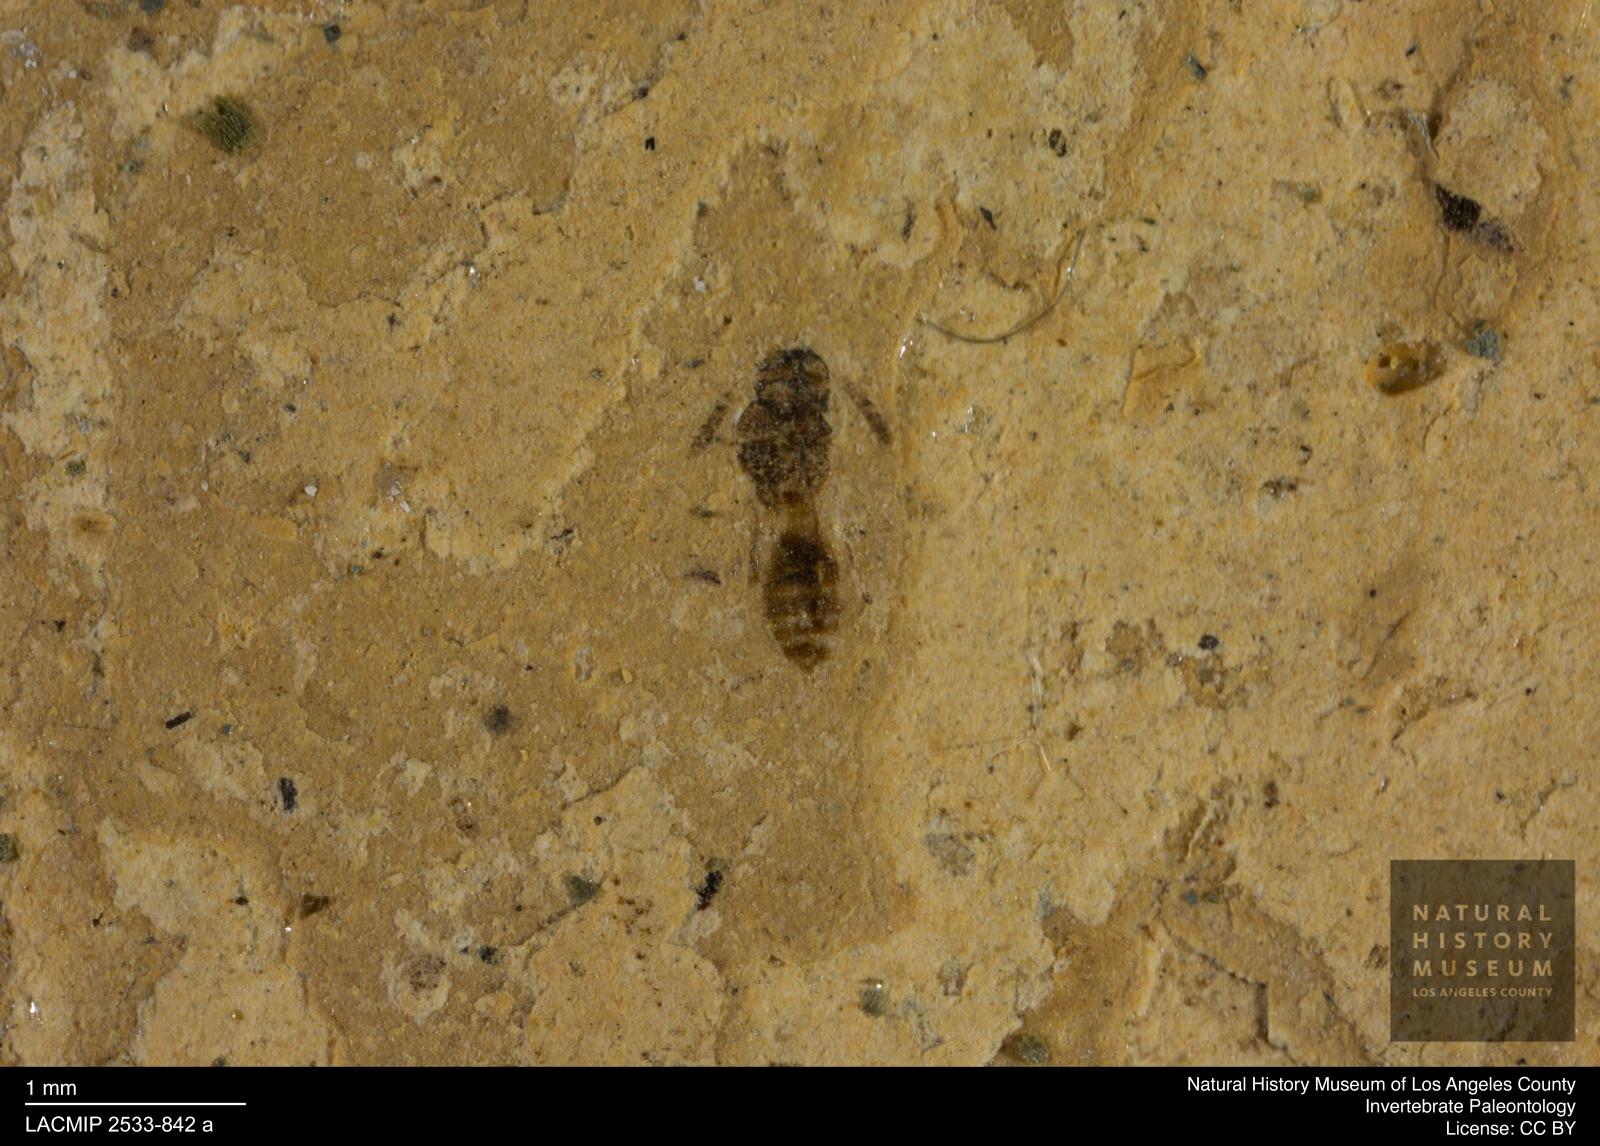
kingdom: Animalia
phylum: Arthropoda
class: Insecta
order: Hymenoptera
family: Pteromalidae
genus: Pteromalus
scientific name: Pteromalus atomus
